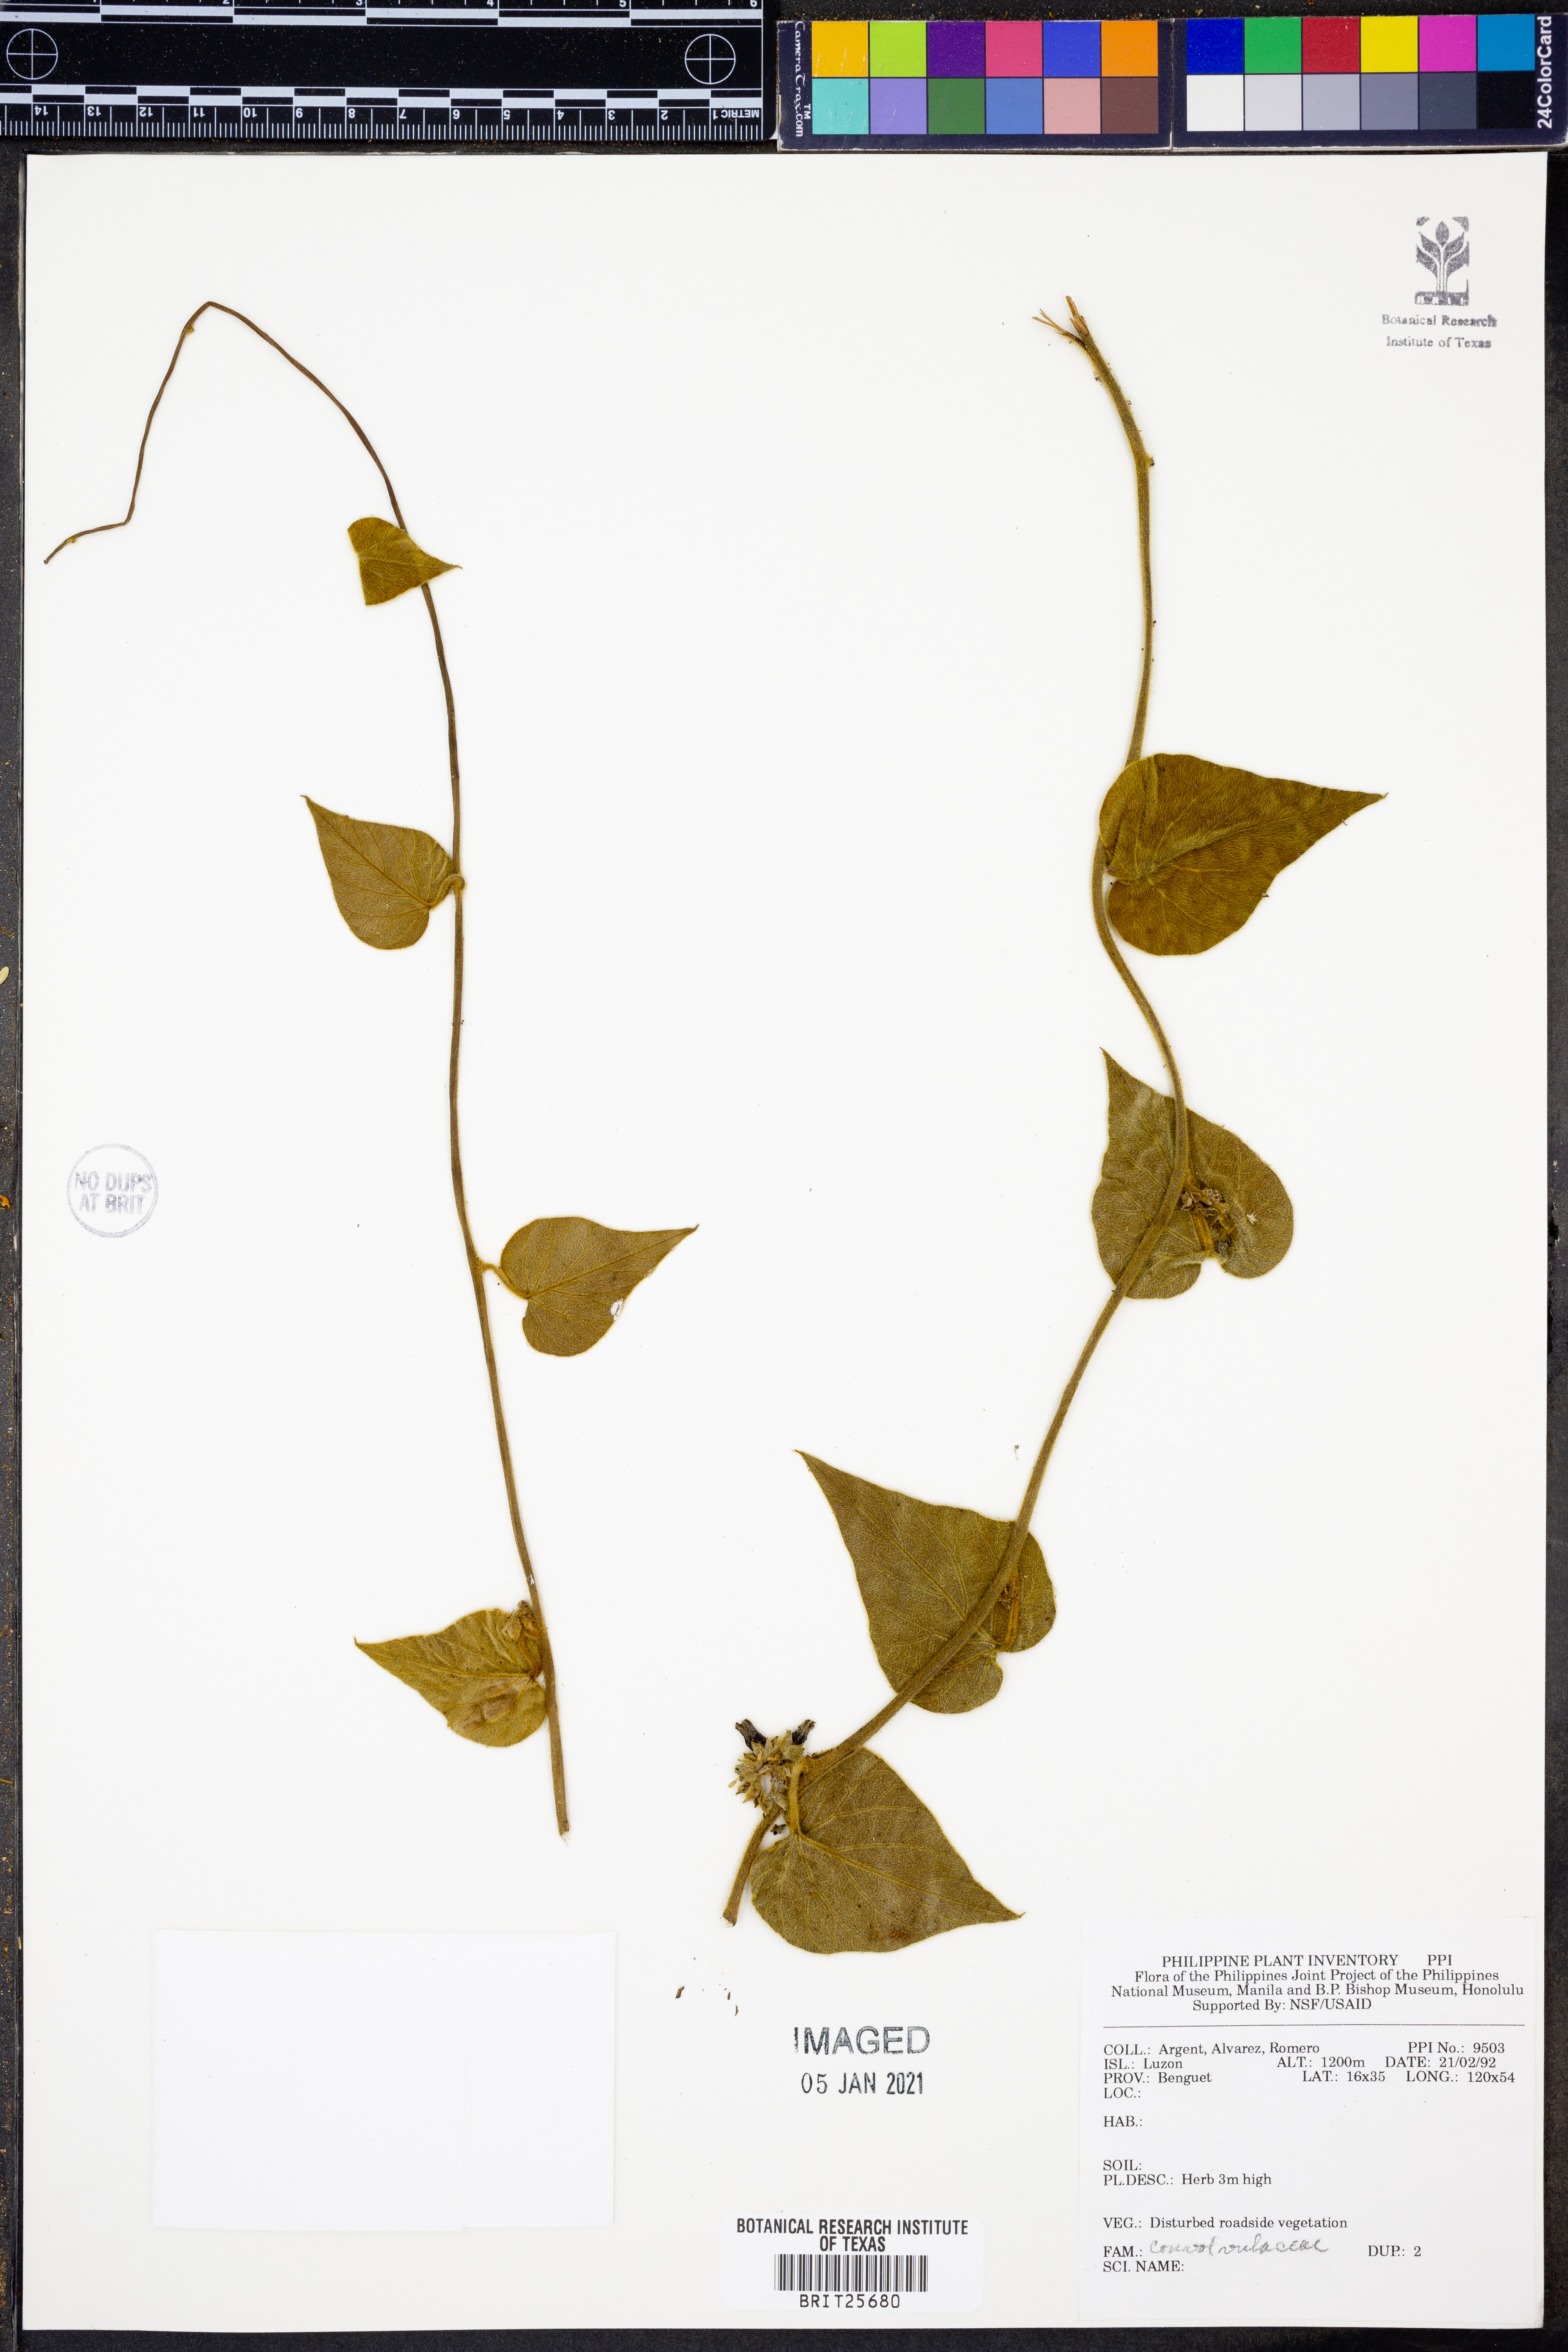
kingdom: Plantae
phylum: Tracheophyta
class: Magnoliopsida
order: Solanales
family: Convolvulaceae
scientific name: Convolvulaceae
